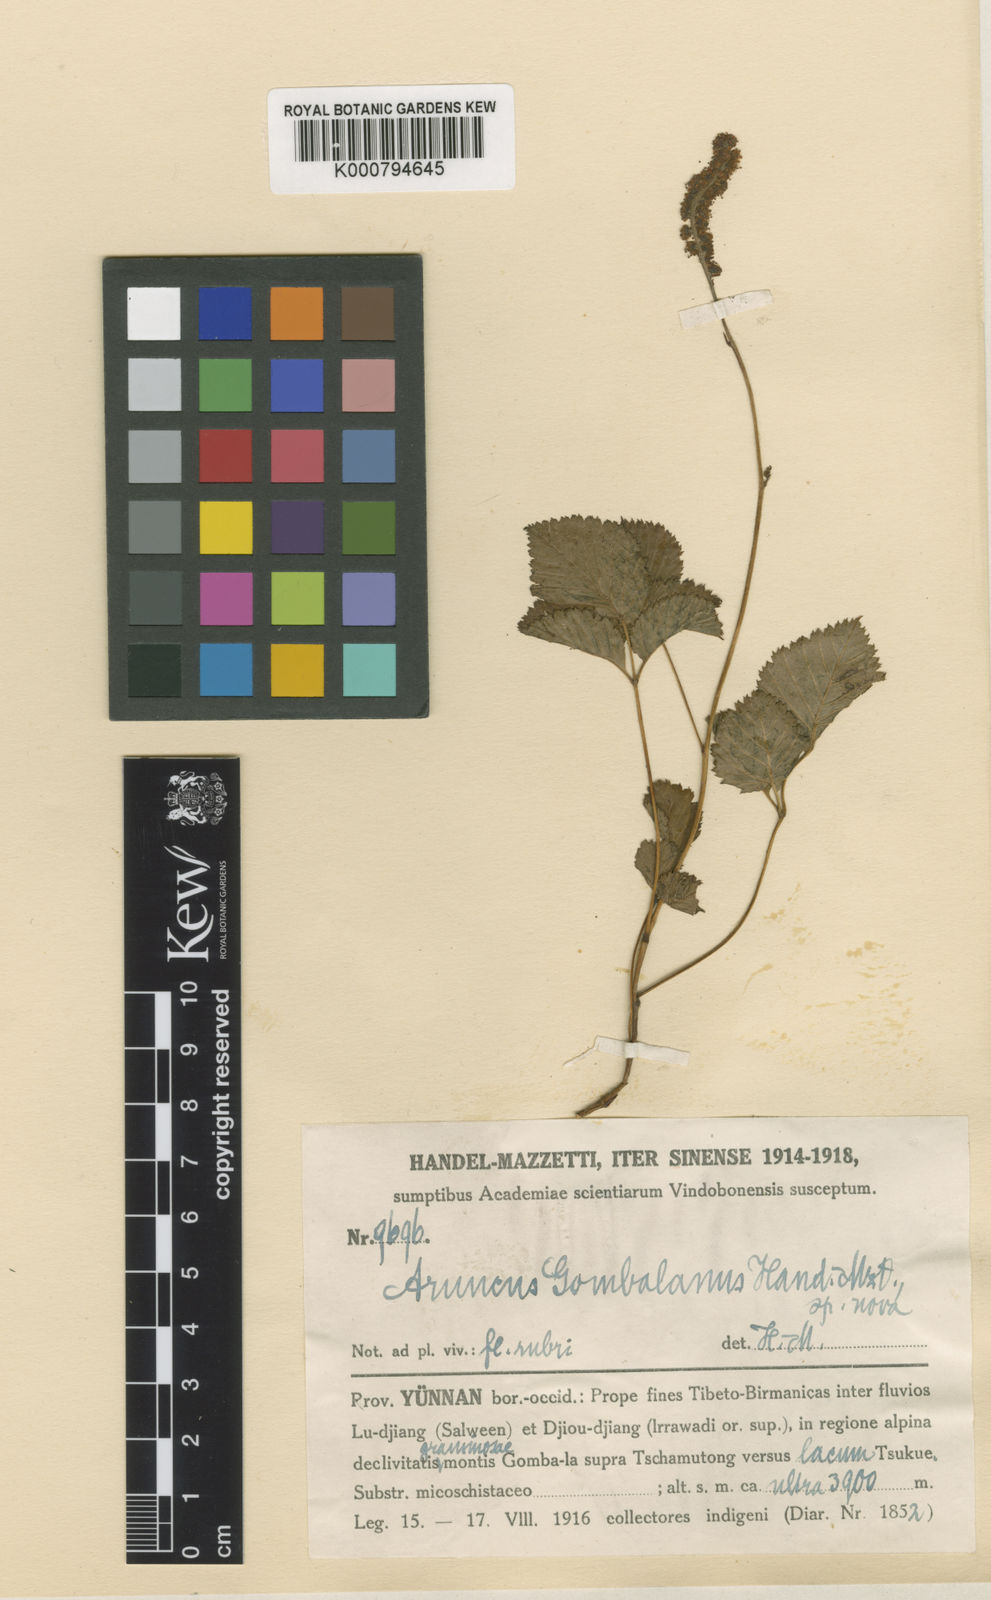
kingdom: Plantae
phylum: Tracheophyta
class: Magnoliopsida
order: Rosales
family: Rosaceae
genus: Aruncus
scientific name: Aruncus gombalanus
